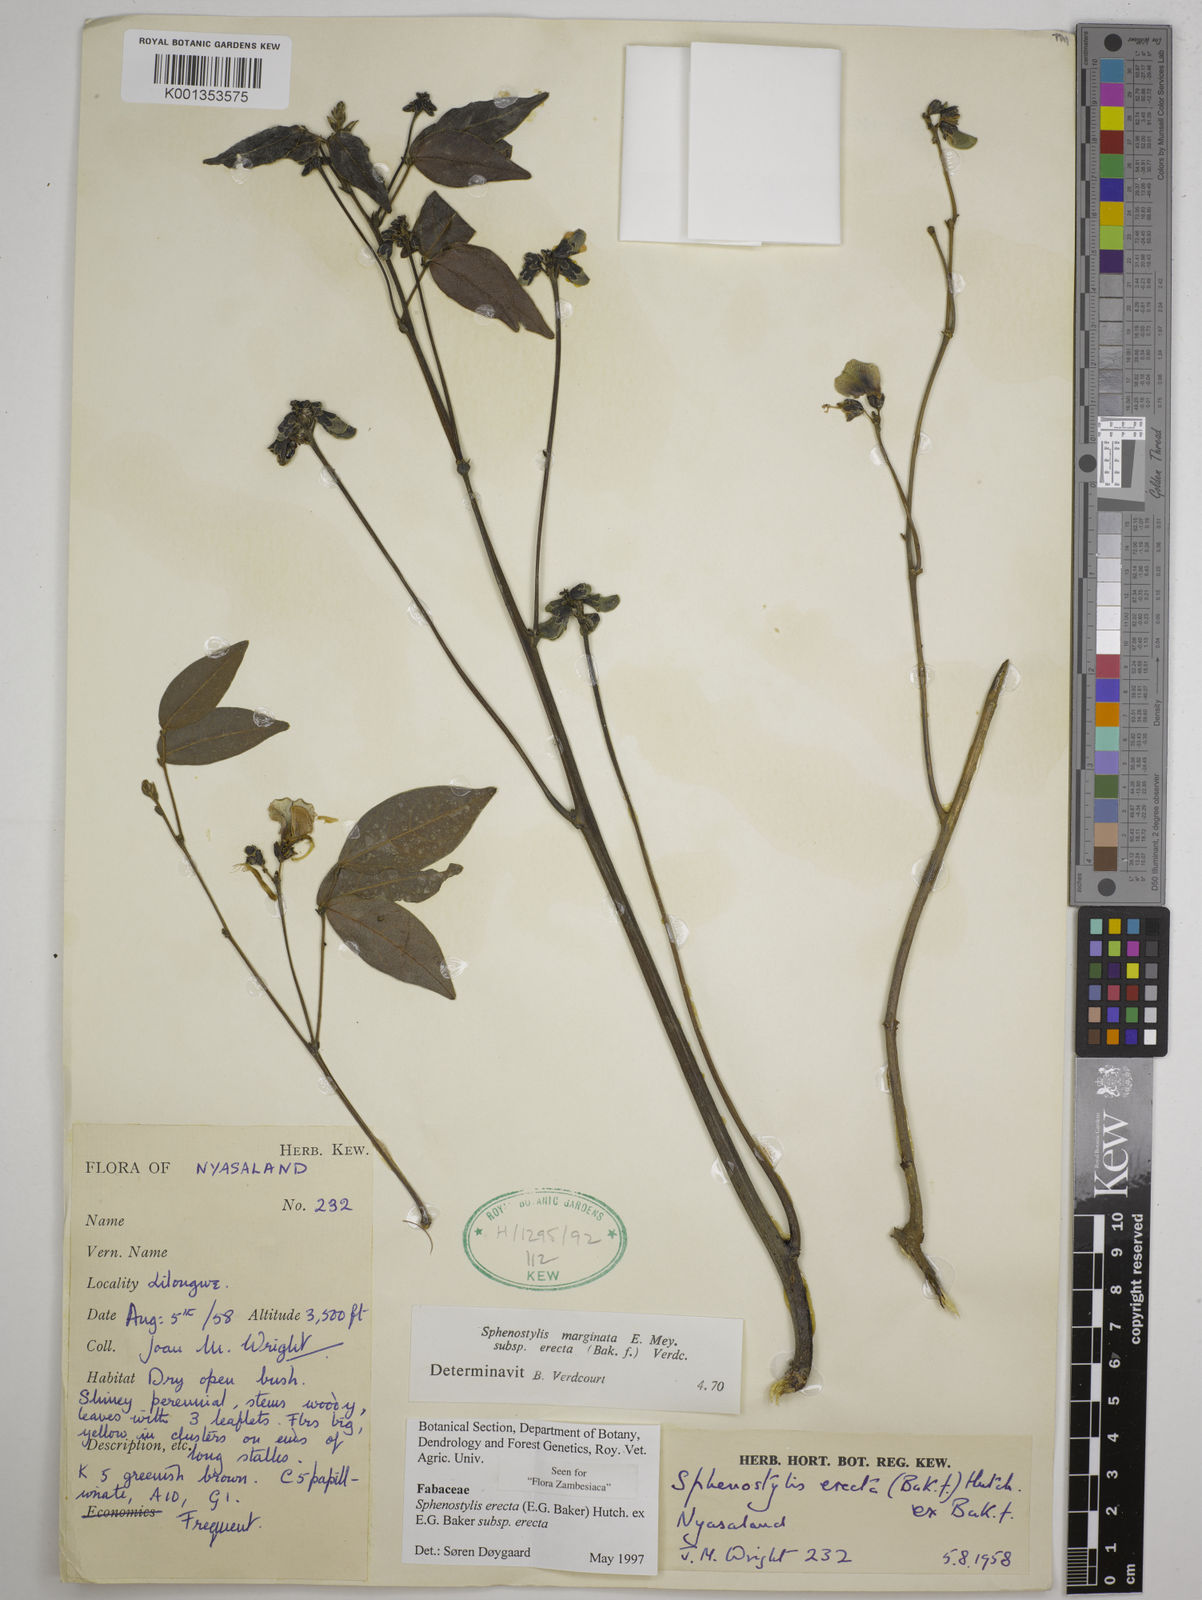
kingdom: Plantae
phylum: Tracheophyta
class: Magnoliopsida
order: Fabales
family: Fabaceae
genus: Sphenostylis
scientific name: Sphenostylis erecta
